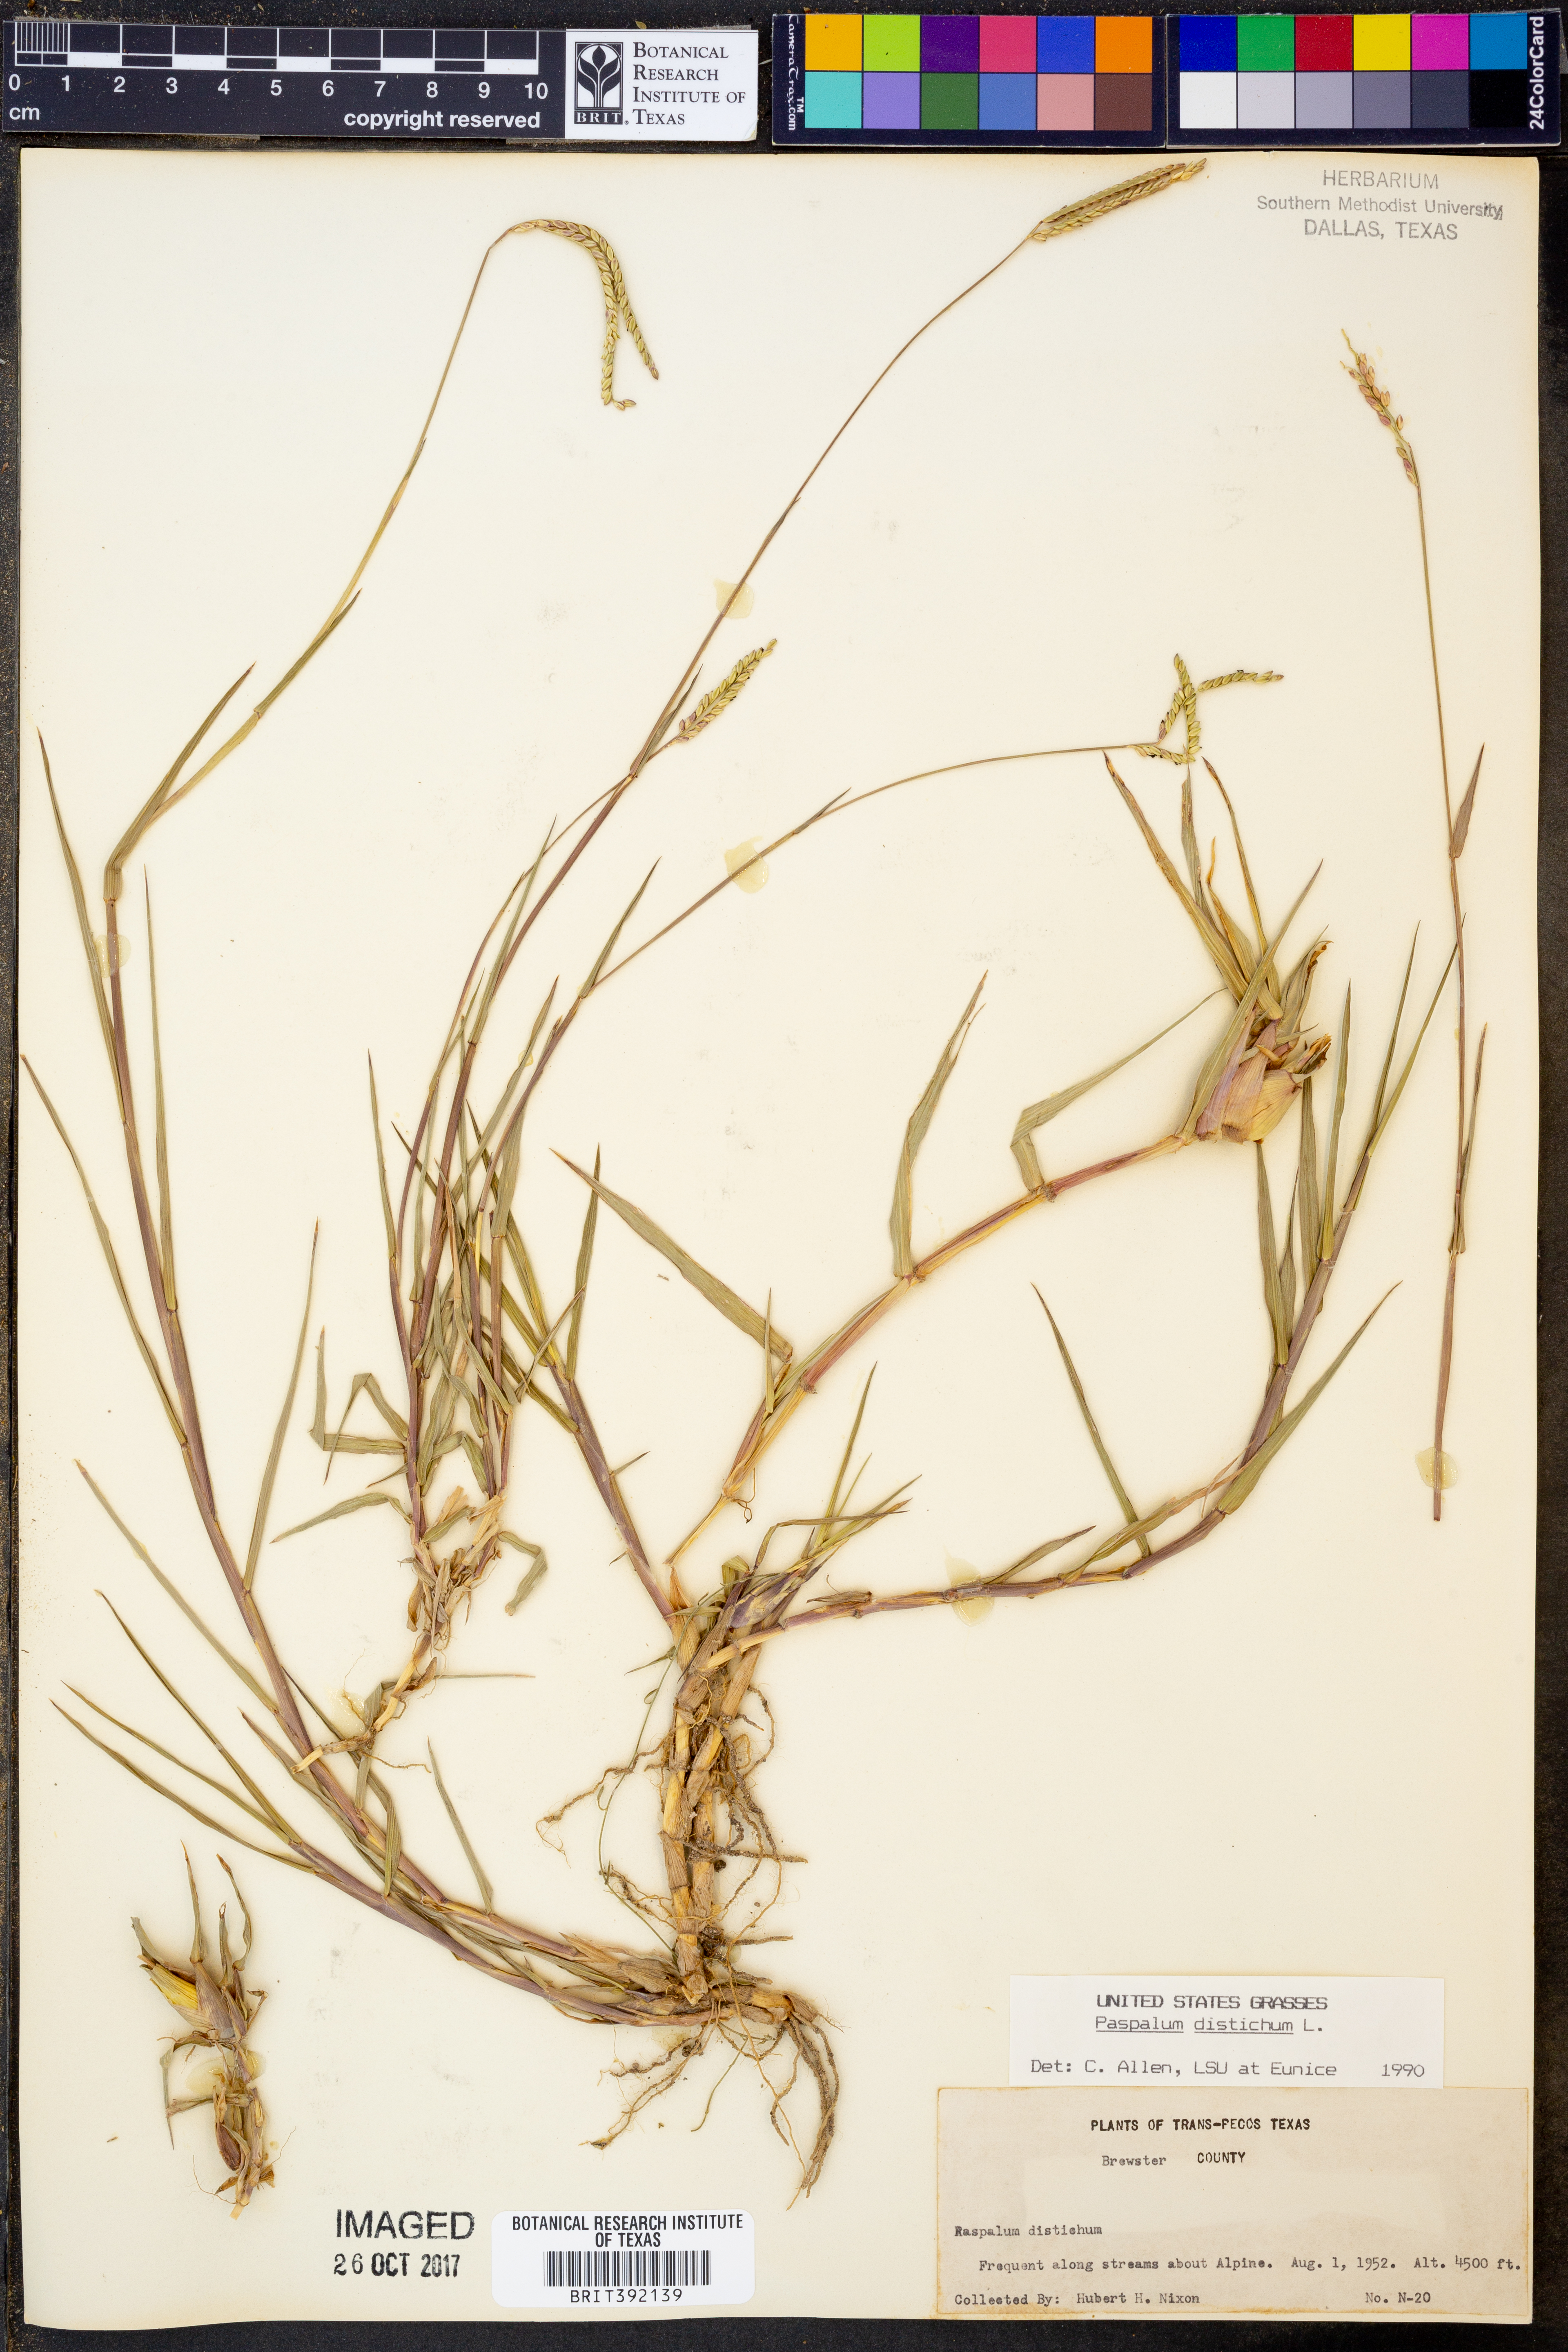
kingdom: Plantae
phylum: Tracheophyta
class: Liliopsida
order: Poales
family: Poaceae
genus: Paspalum
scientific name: Paspalum distichum
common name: Knotgrass
